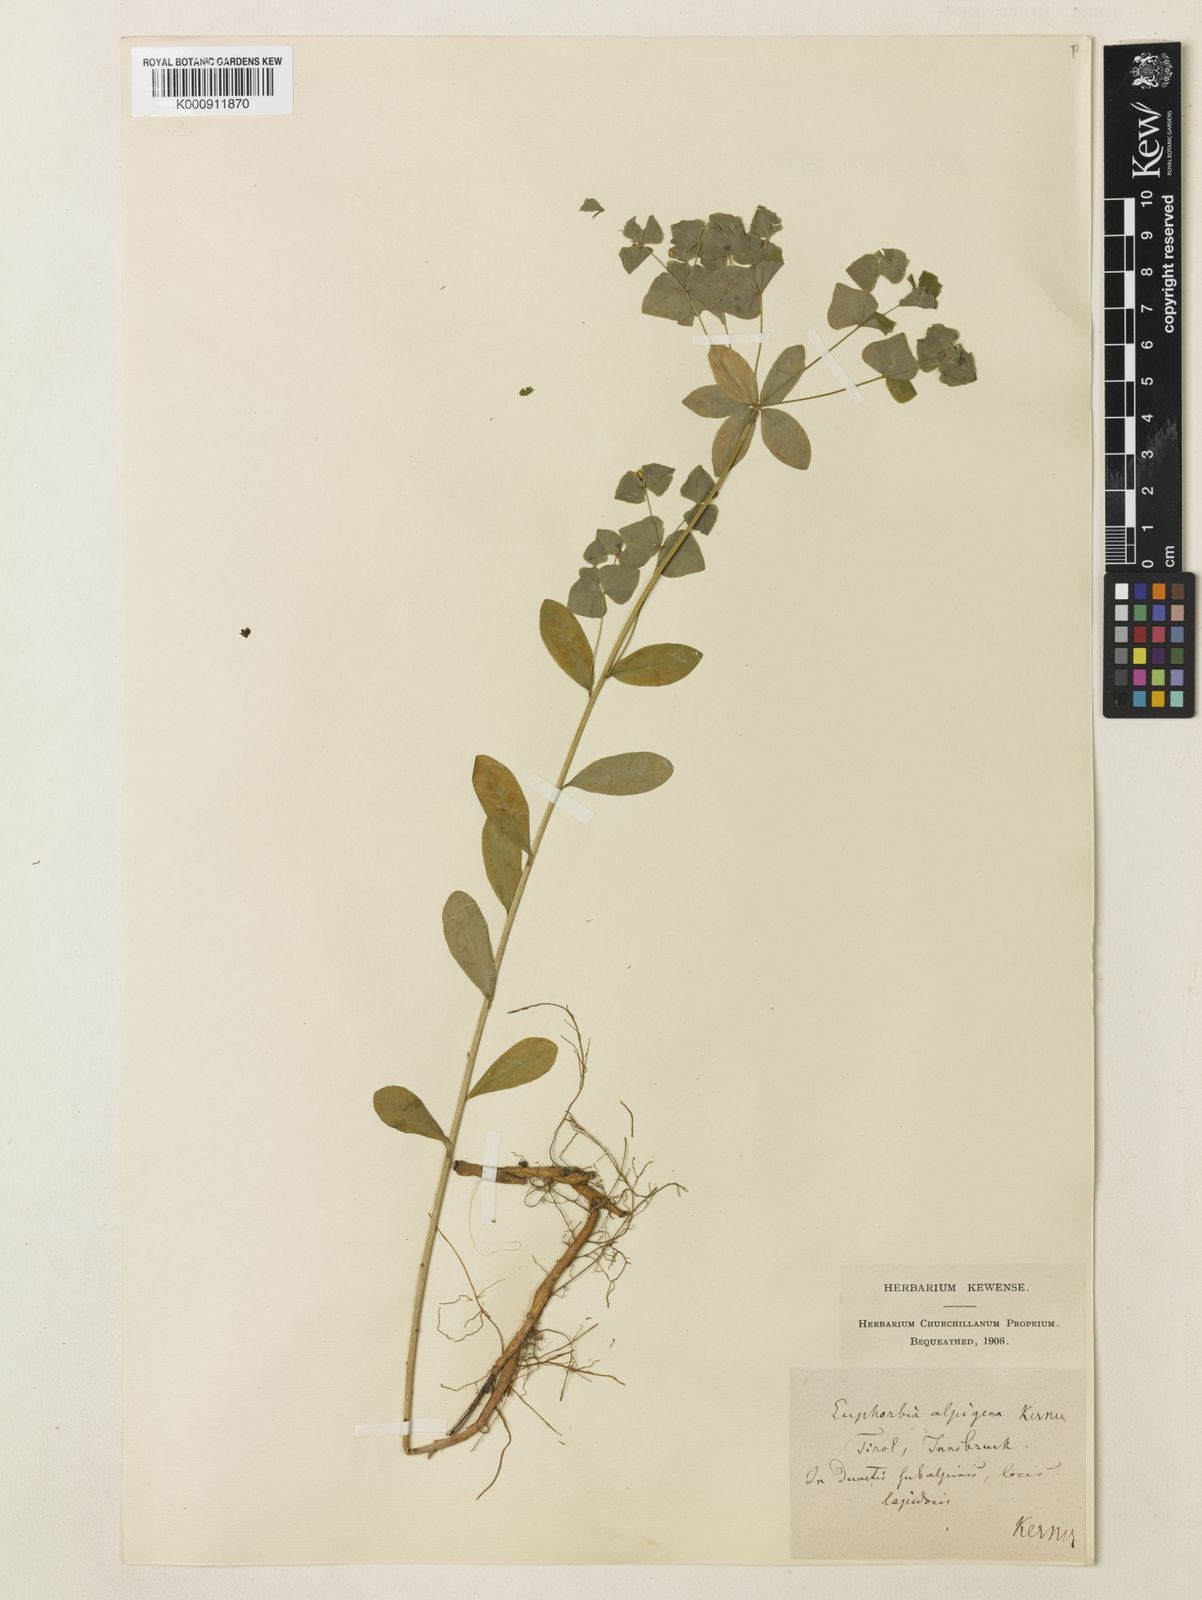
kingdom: Plantae
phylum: Tracheophyta
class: Magnoliopsida
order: Malpighiales
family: Euphorbiaceae
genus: Euphorbia
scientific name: Euphorbia
